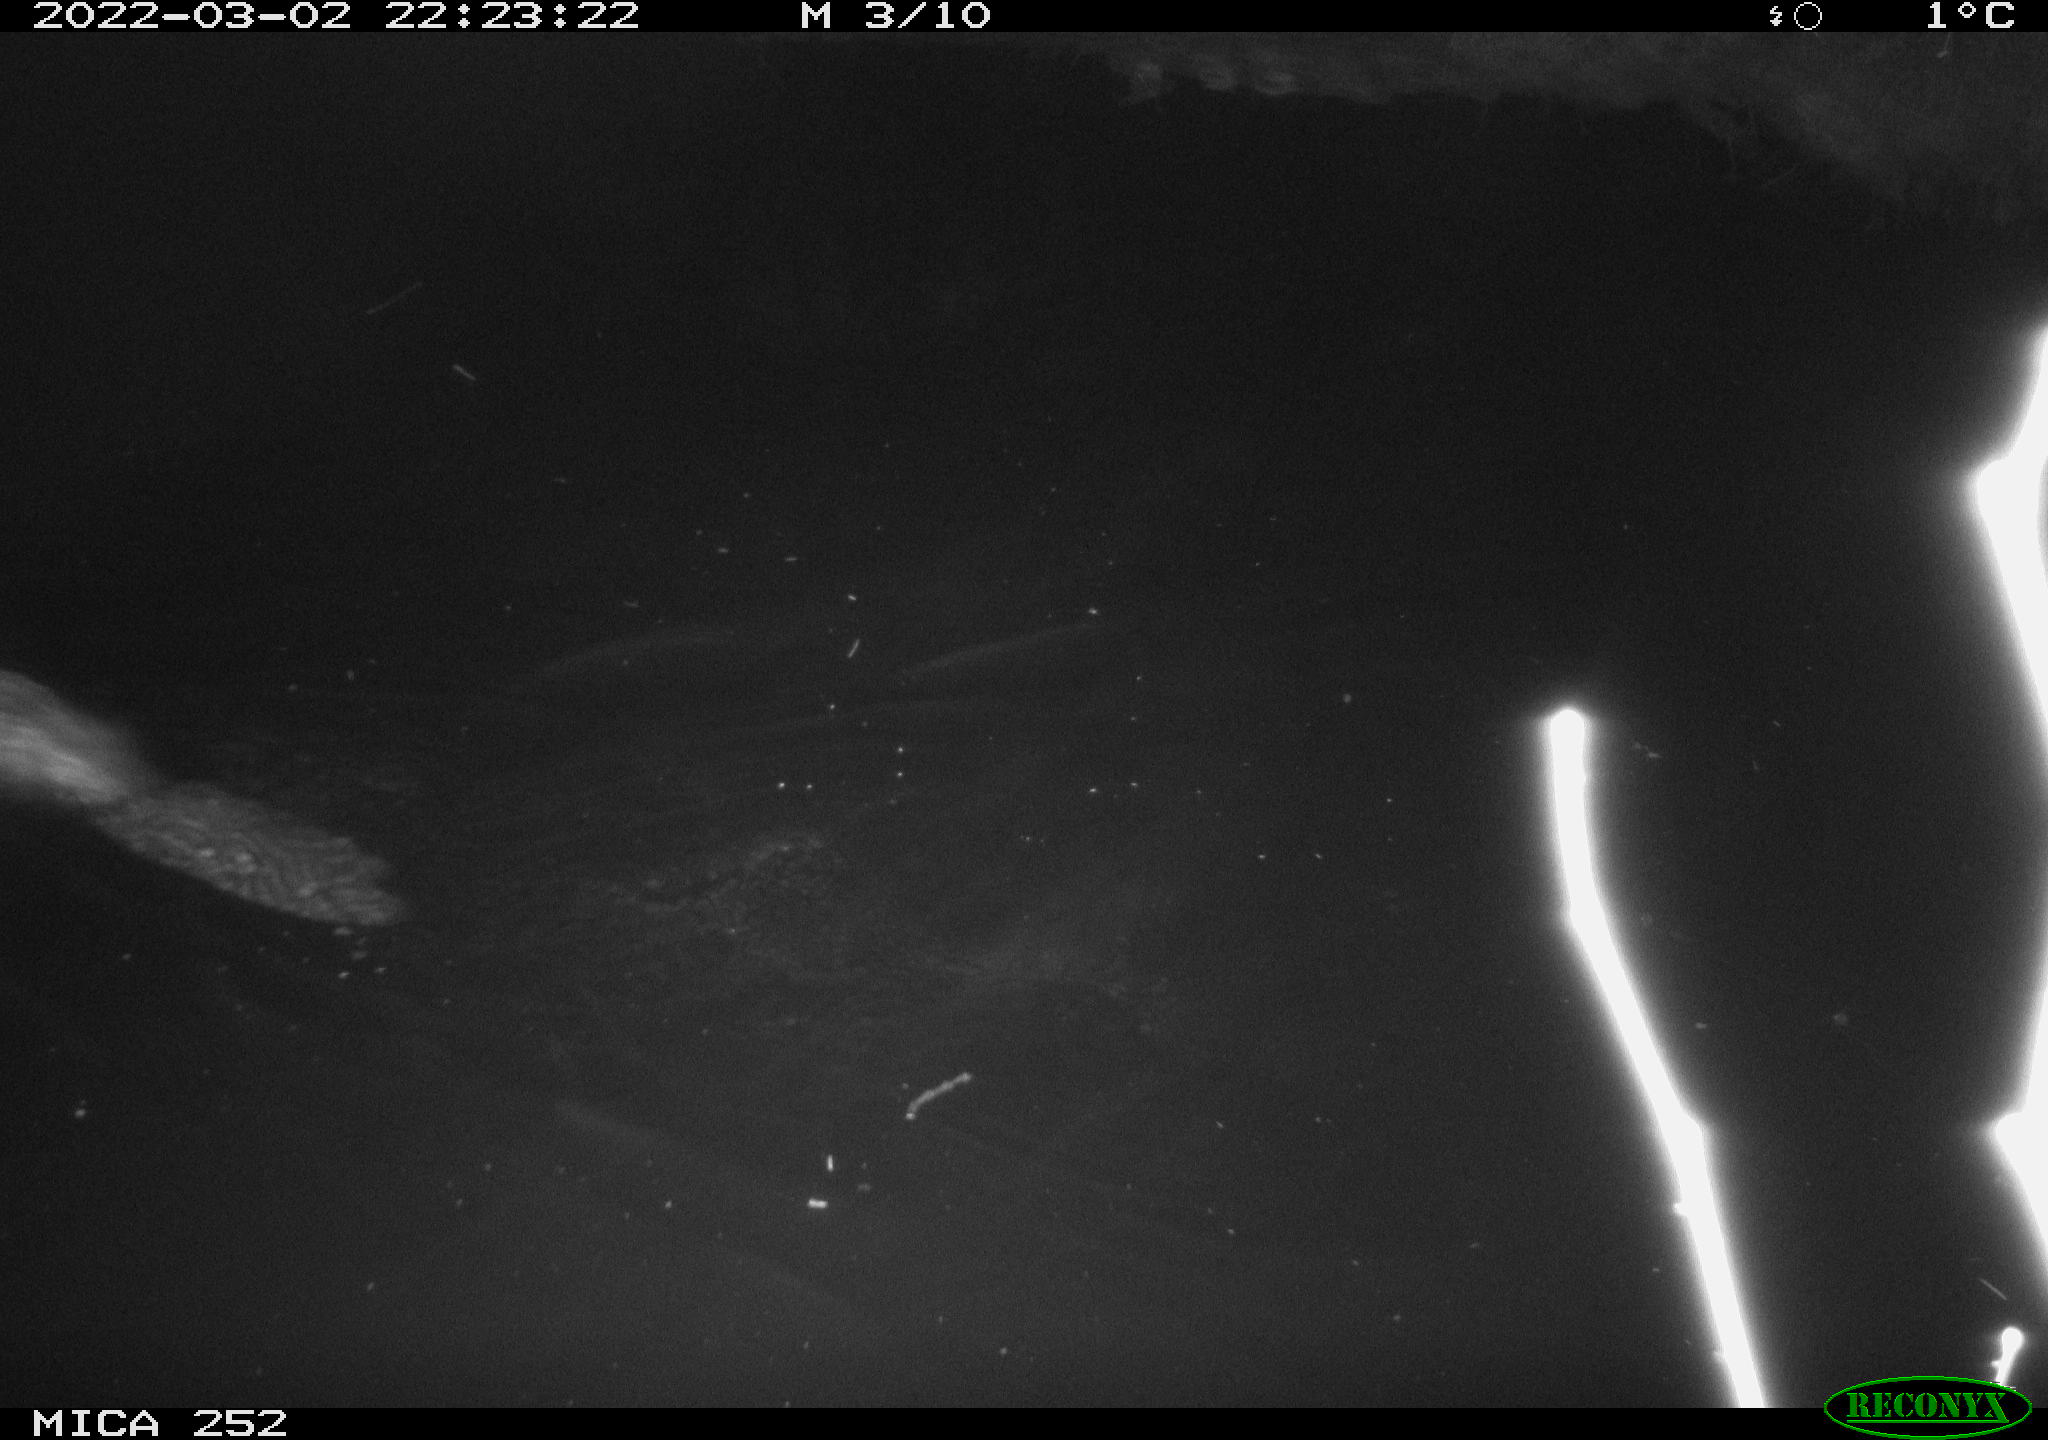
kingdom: Animalia
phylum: Chordata
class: Mammalia
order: Rodentia
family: Castoridae
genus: Castor
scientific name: Castor fiber
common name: Eurasian beaver
